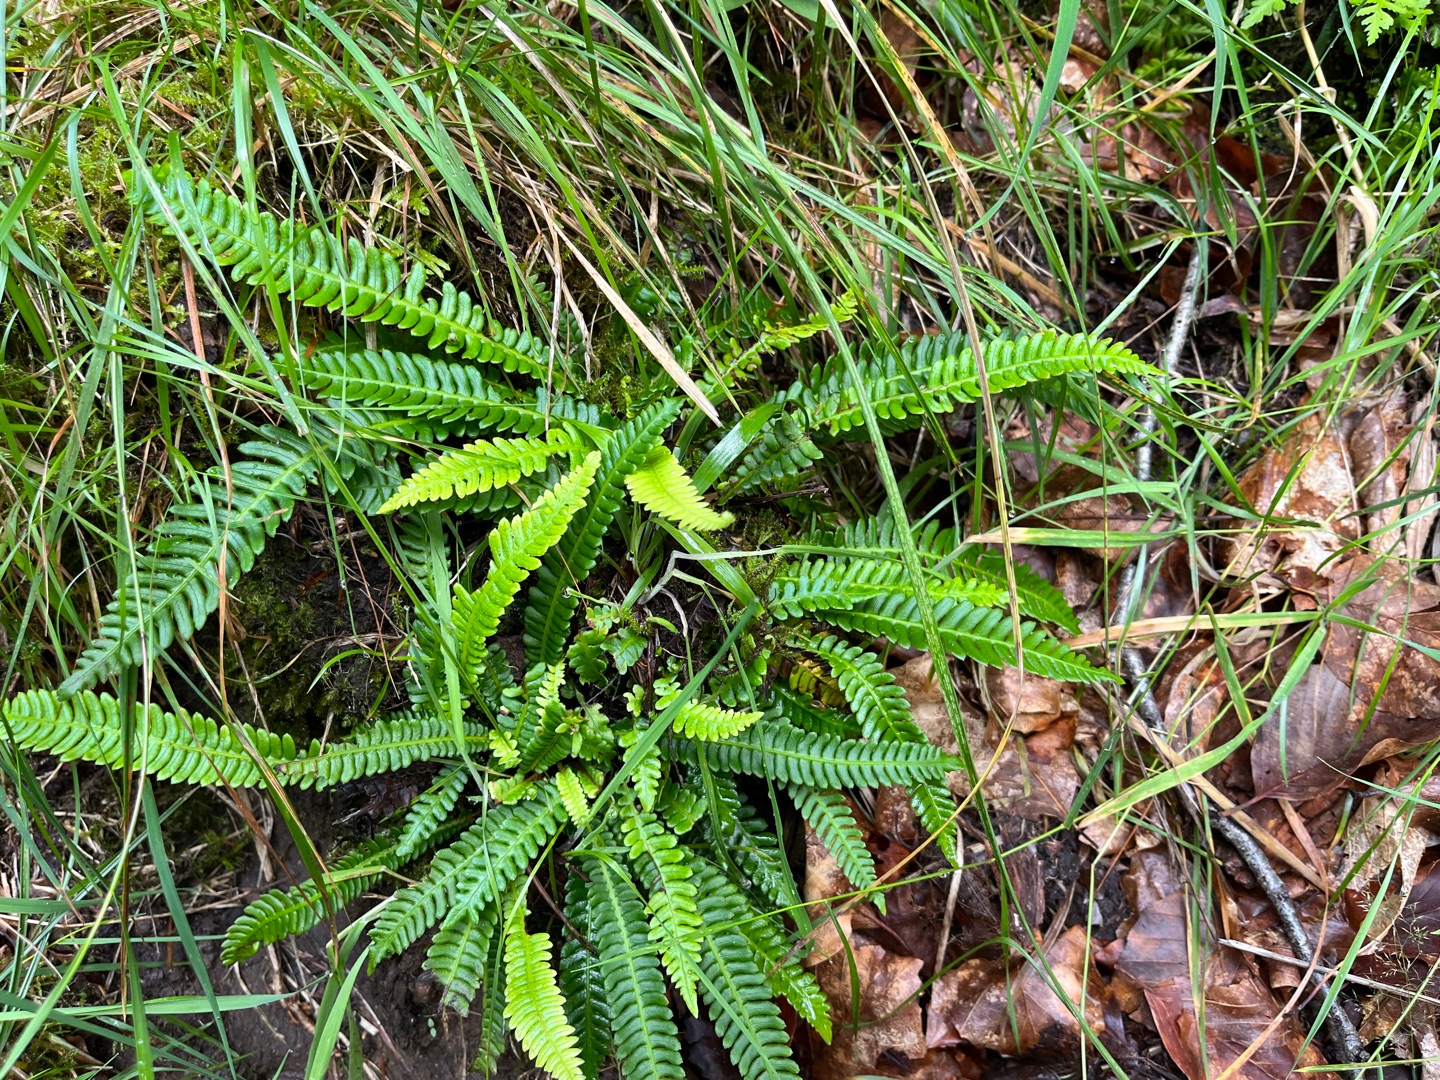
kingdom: Plantae
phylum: Tracheophyta
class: Polypodiopsida
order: Polypodiales
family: Blechnaceae
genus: Struthiopteris
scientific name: Struthiopteris spicant
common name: Kambregne
